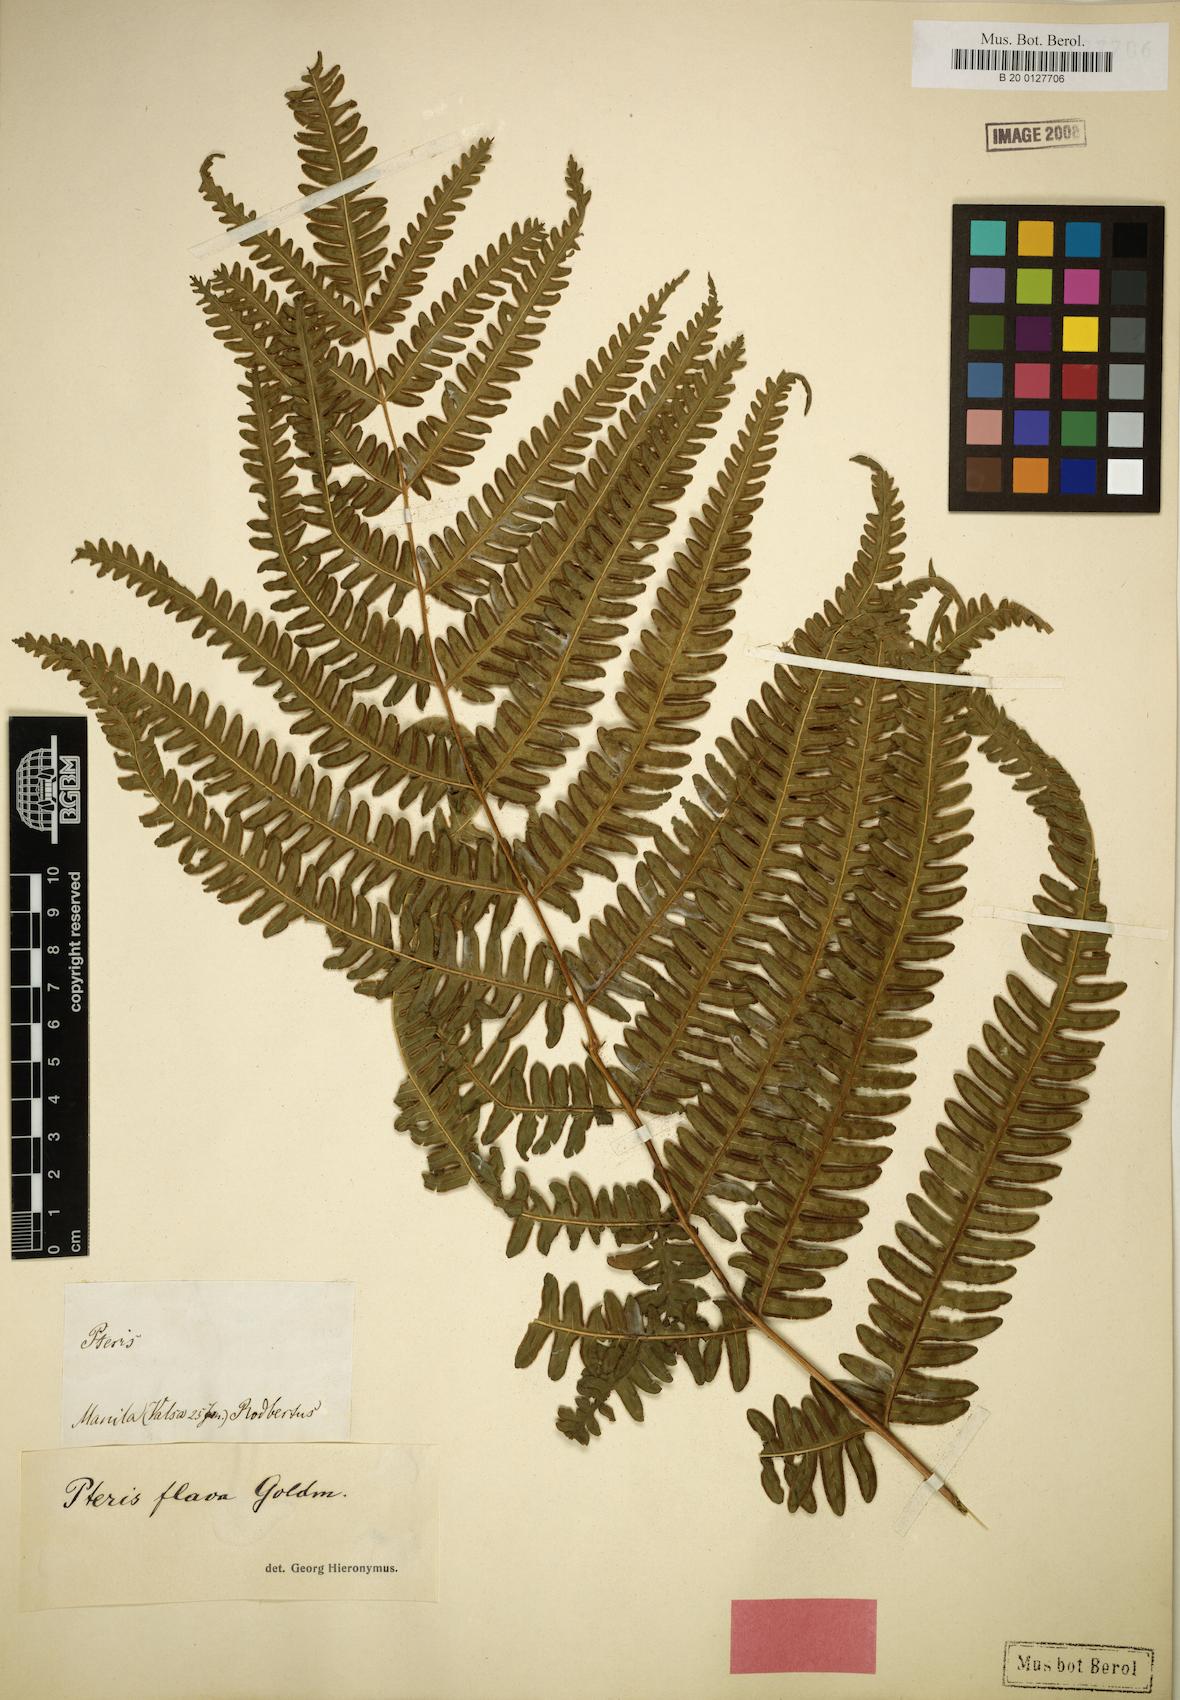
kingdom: Plantae
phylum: Tracheophyta
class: Polypodiopsida
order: Polypodiales
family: Pteridaceae
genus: Pteris
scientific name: Pteris glaucovirens
